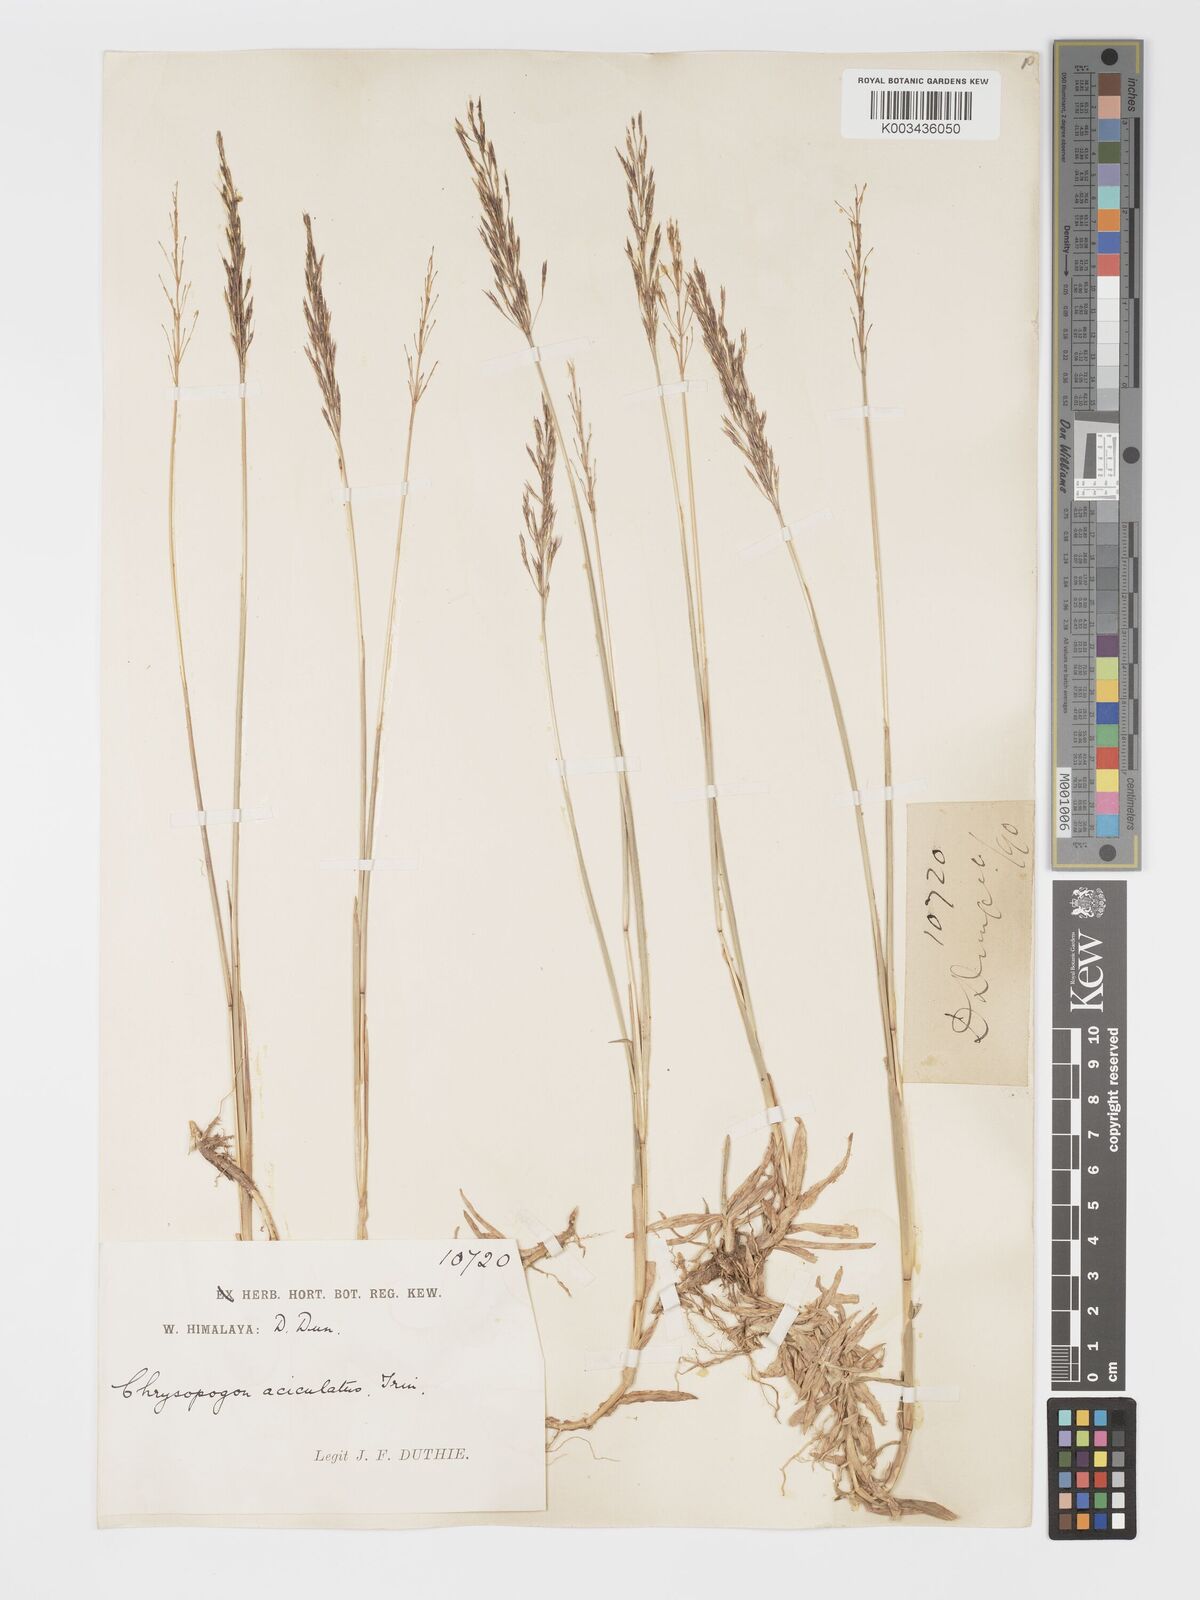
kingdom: Plantae
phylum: Tracheophyta
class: Liliopsida
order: Poales
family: Poaceae
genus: Chrysopogon
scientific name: Chrysopogon aciculatus
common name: Pilipiliula
